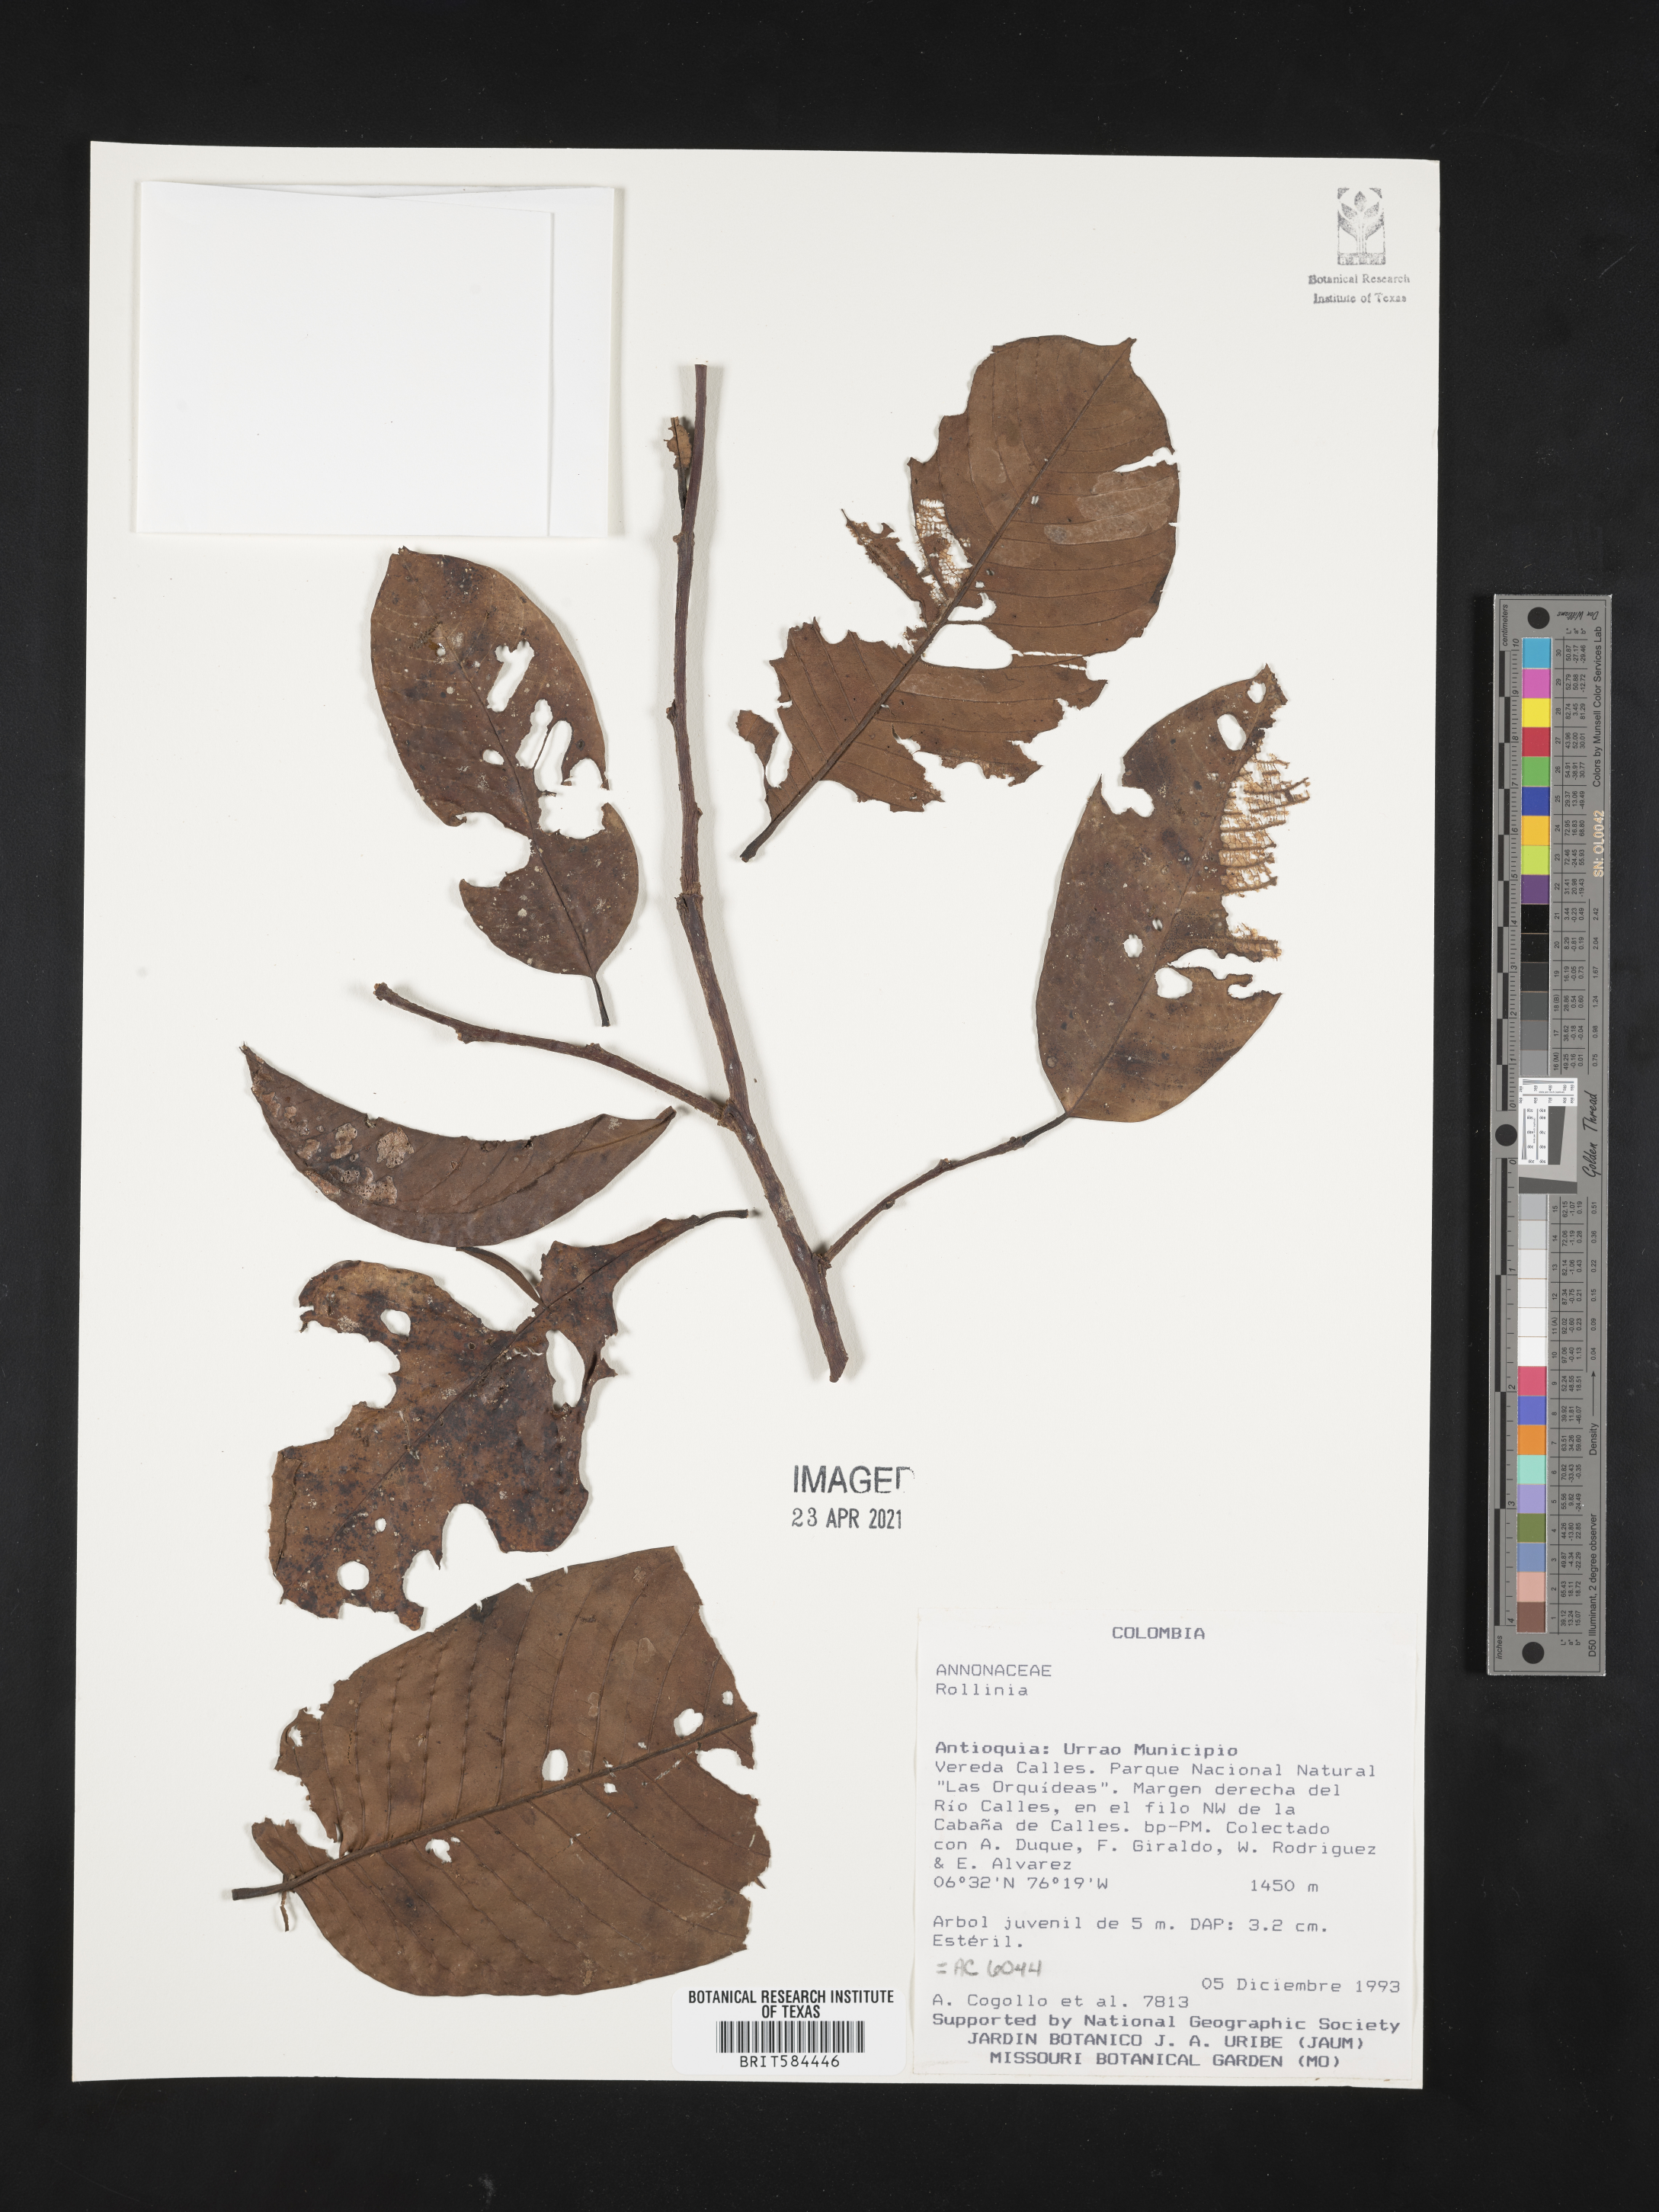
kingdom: Plantae
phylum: Tracheophyta
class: Magnoliopsida
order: Magnoliales
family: Annonaceae
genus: Annona
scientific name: Annona
